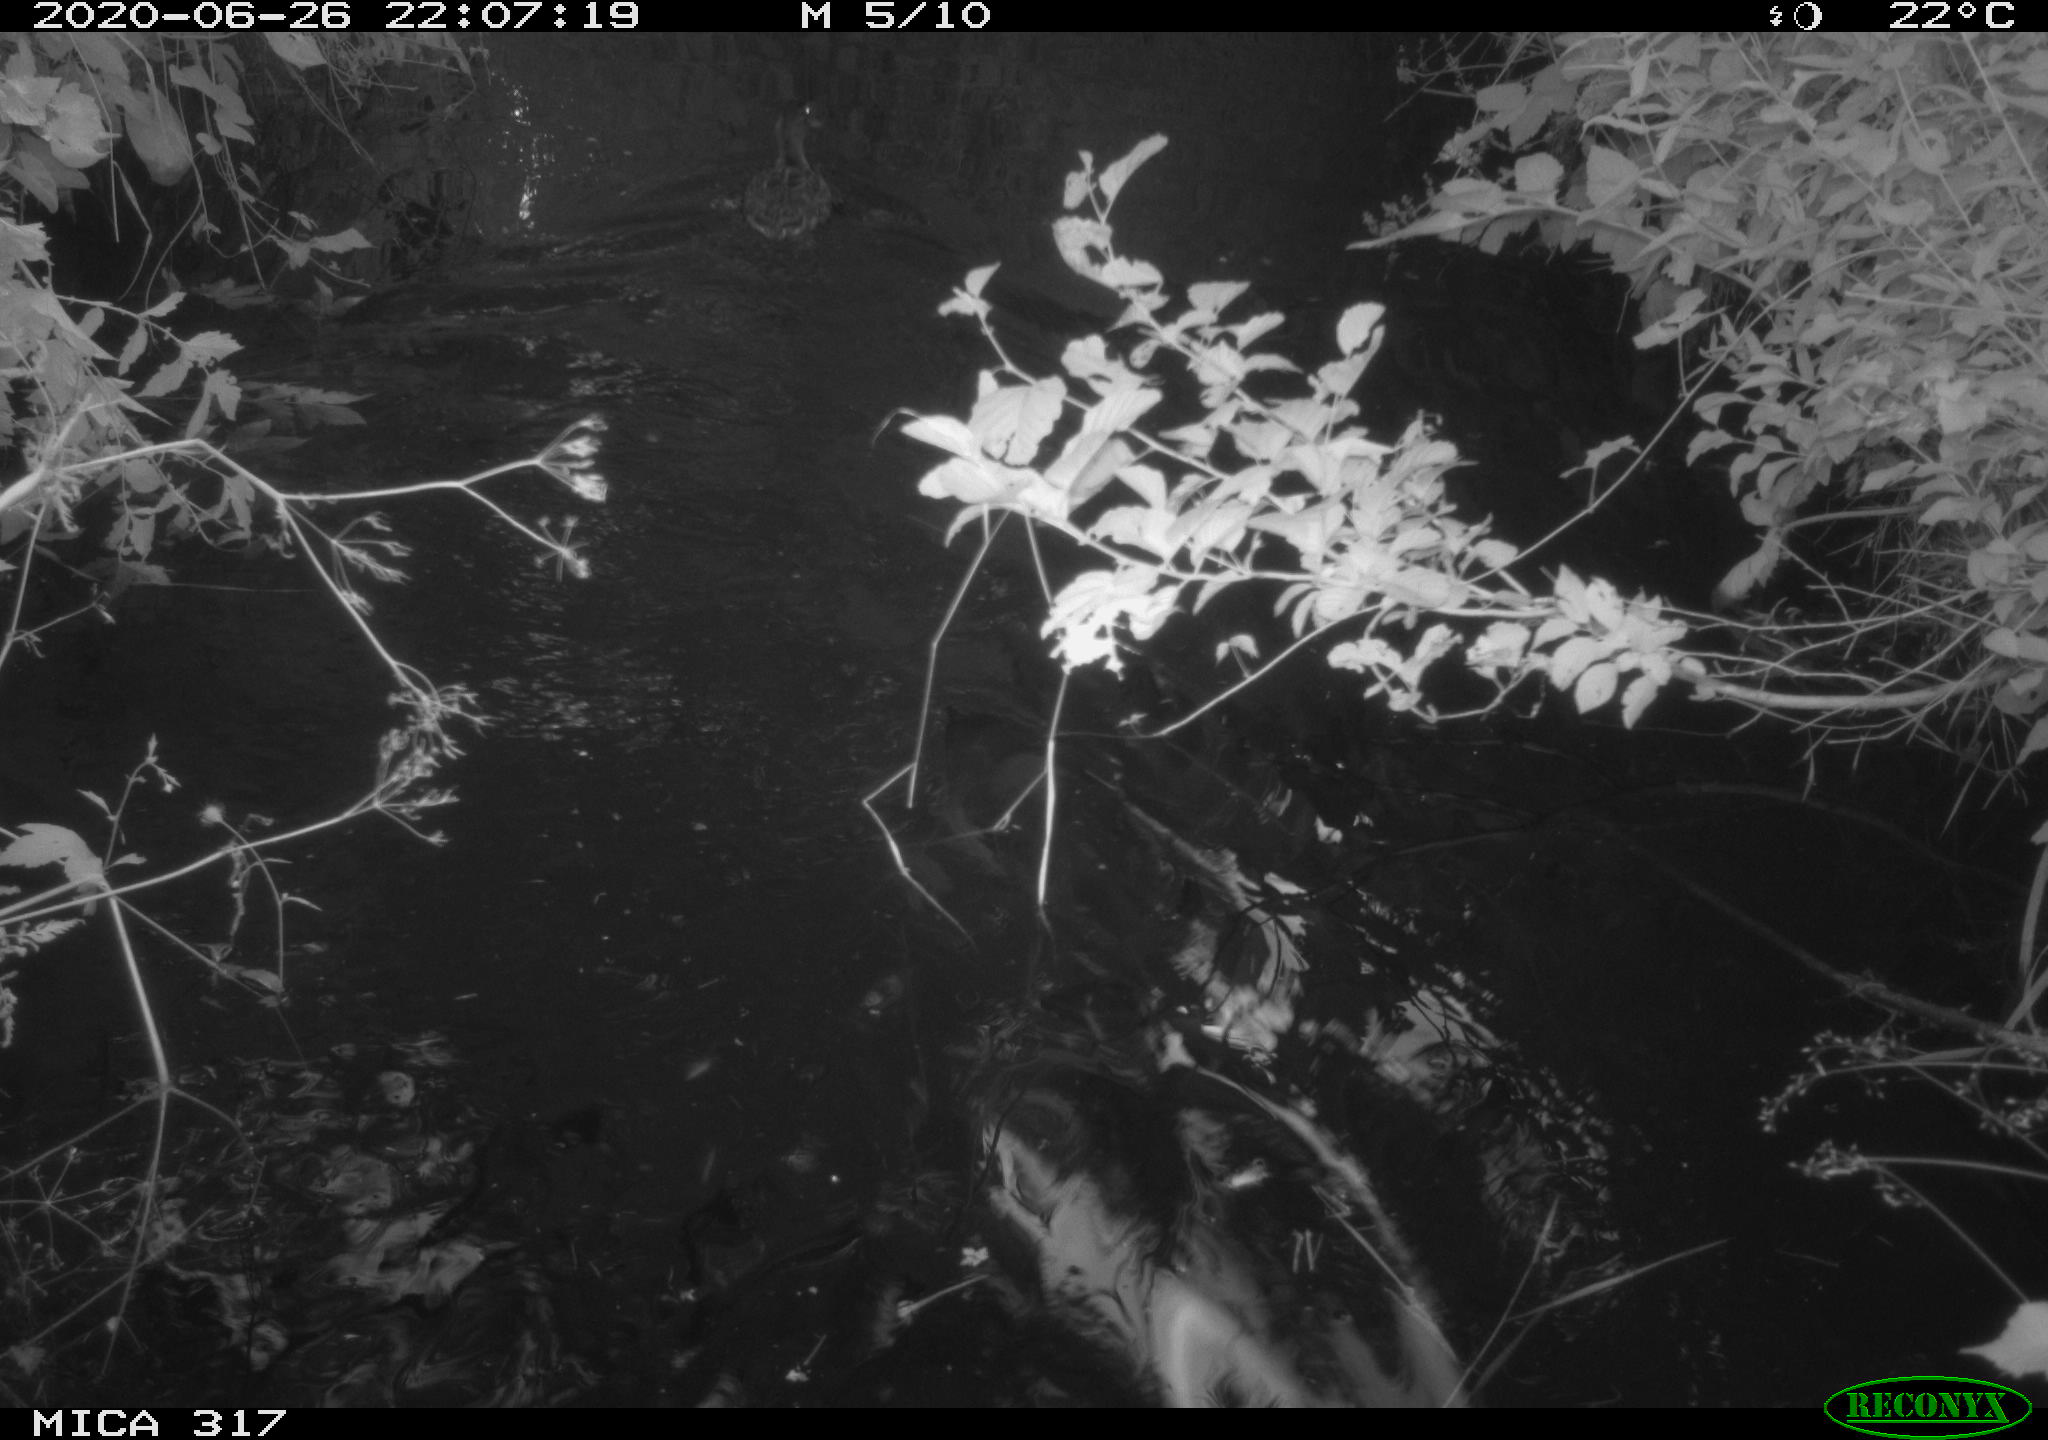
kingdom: Animalia
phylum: Chordata
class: Aves
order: Anseriformes
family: Anatidae
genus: Anas
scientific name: Anas platyrhynchos
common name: Mallard
